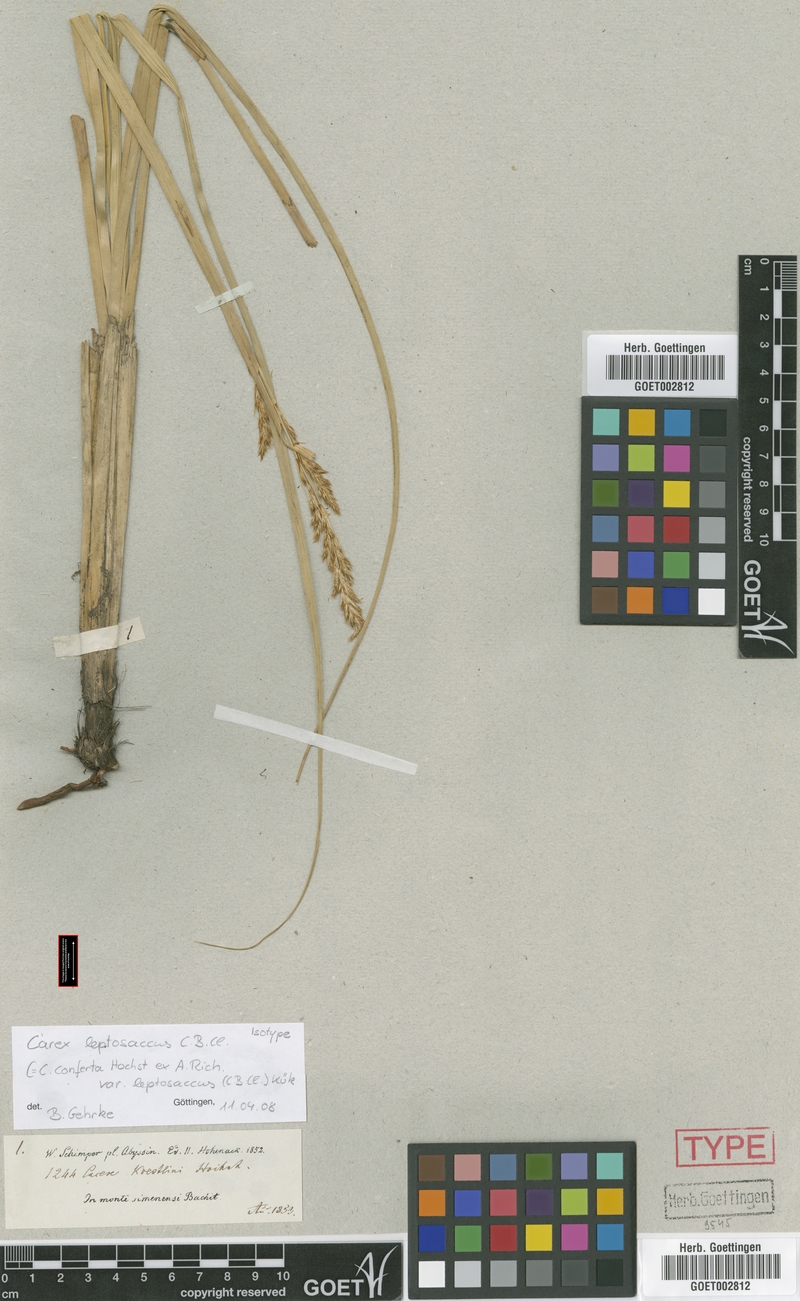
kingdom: Plantae
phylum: Tracheophyta
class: Liliopsida
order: Poales
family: Cyperaceae
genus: Carex
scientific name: Carex microchaeta
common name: Bering sea sedge
